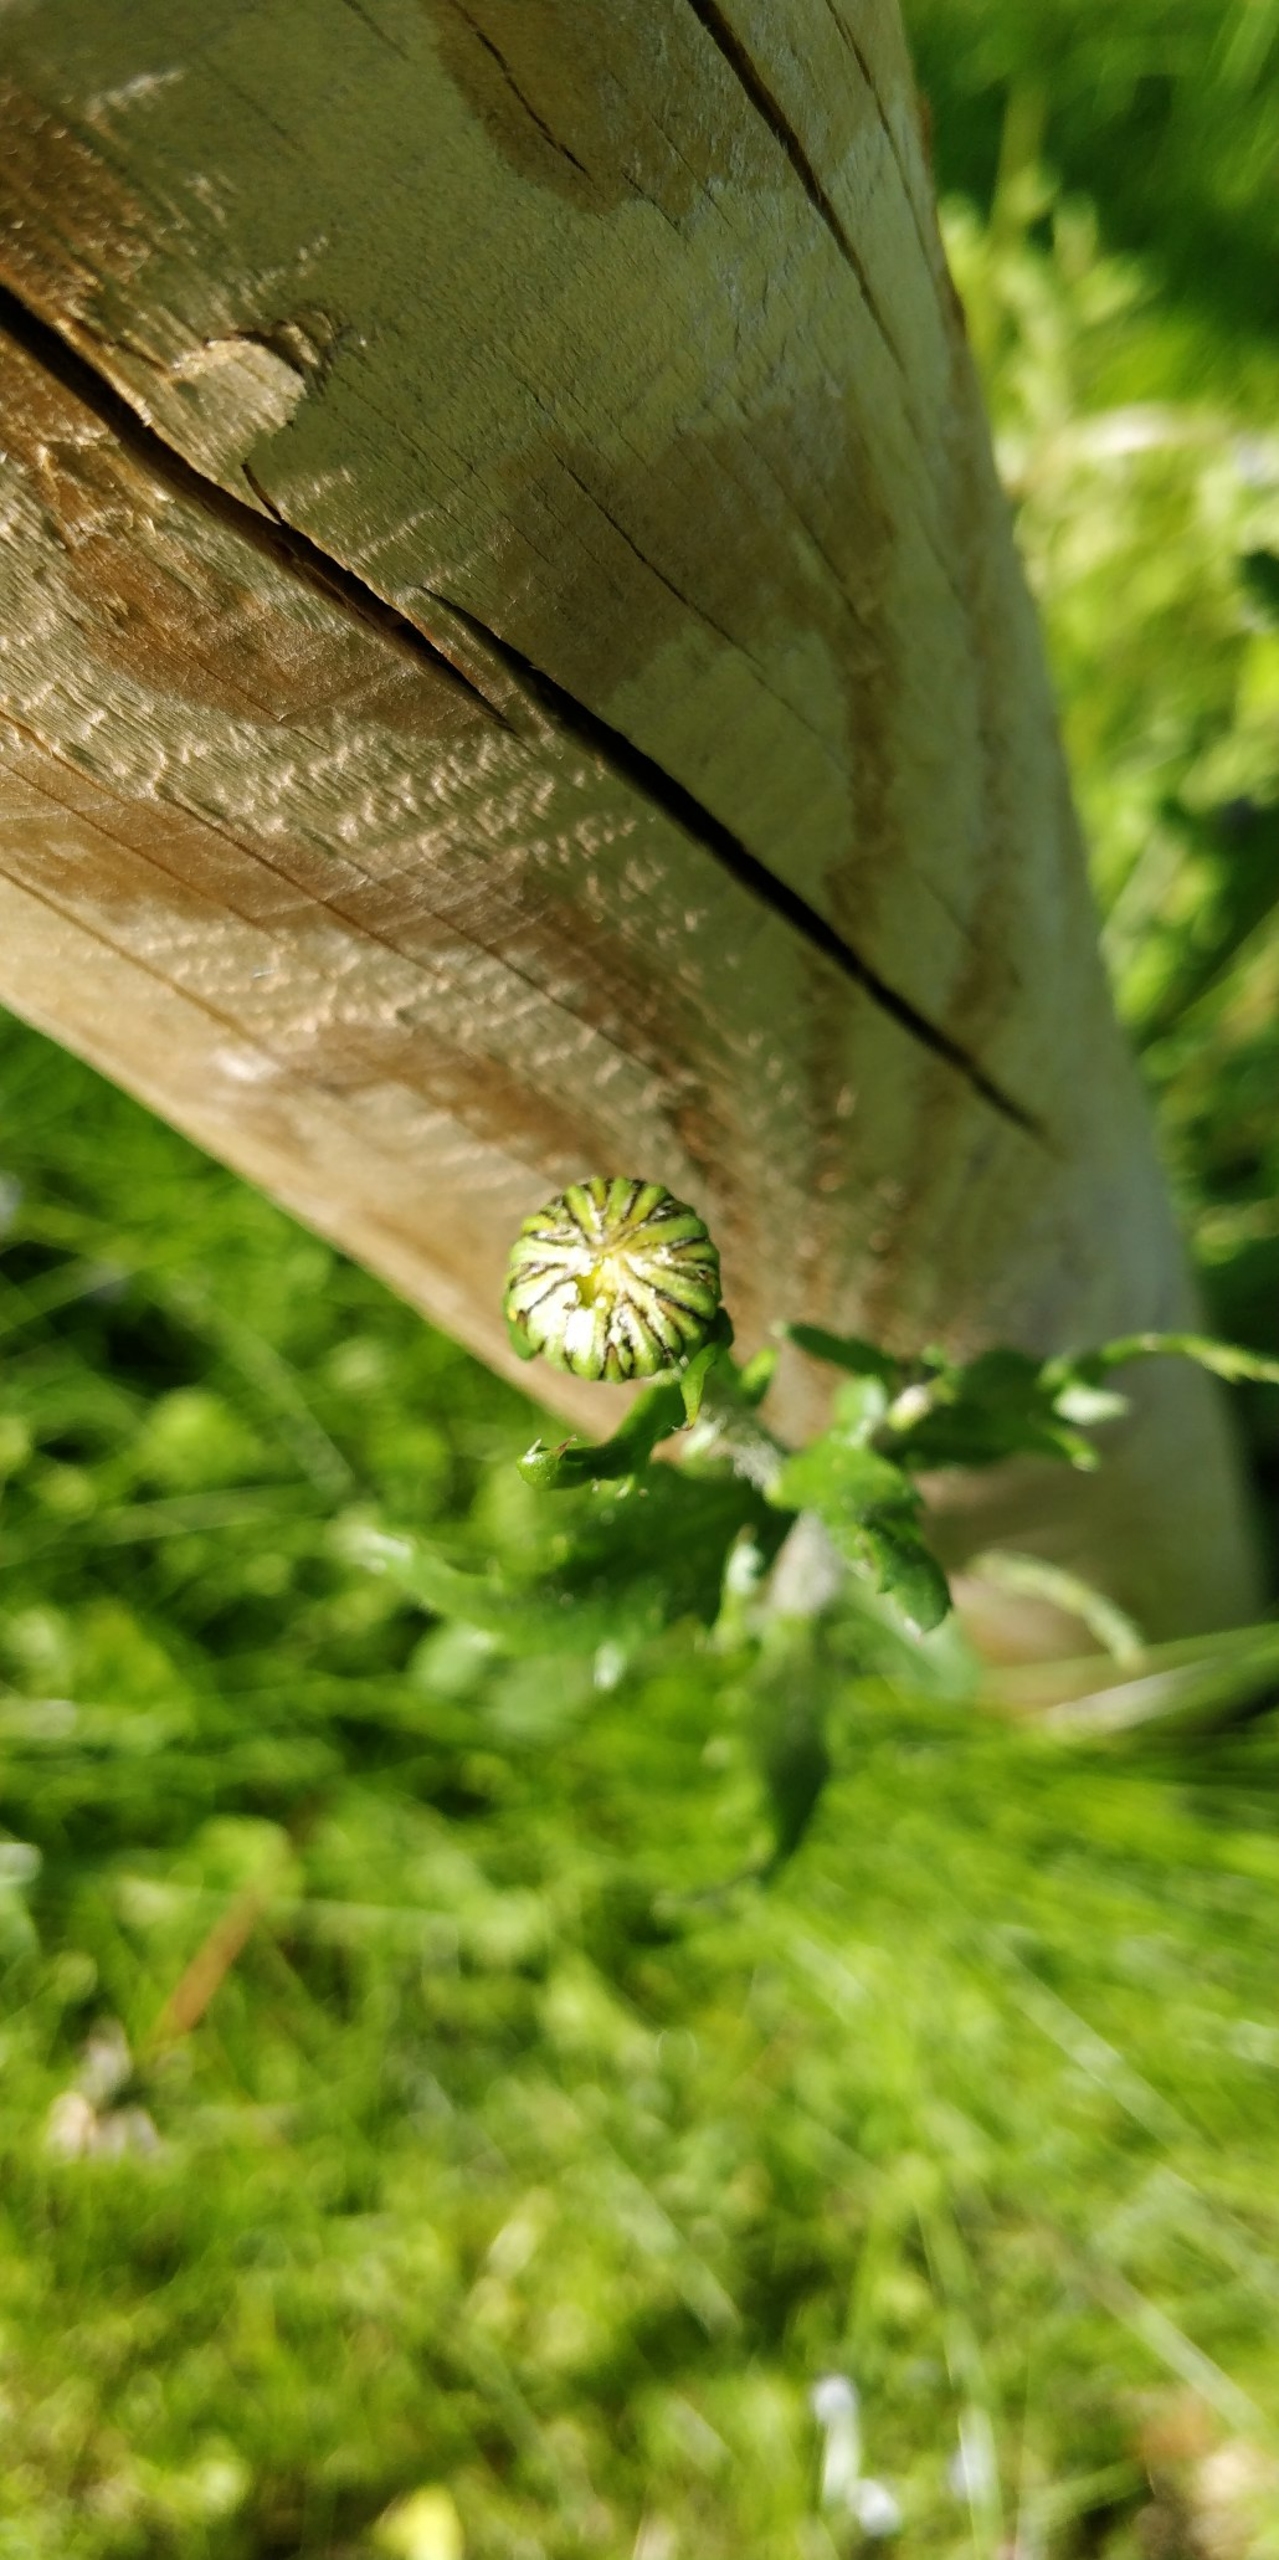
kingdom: Plantae
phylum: Tracheophyta
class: Magnoliopsida
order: Asterales
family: Asteraceae
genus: Leucanthemum
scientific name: Leucanthemum vulgare
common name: Hvid okseøje
